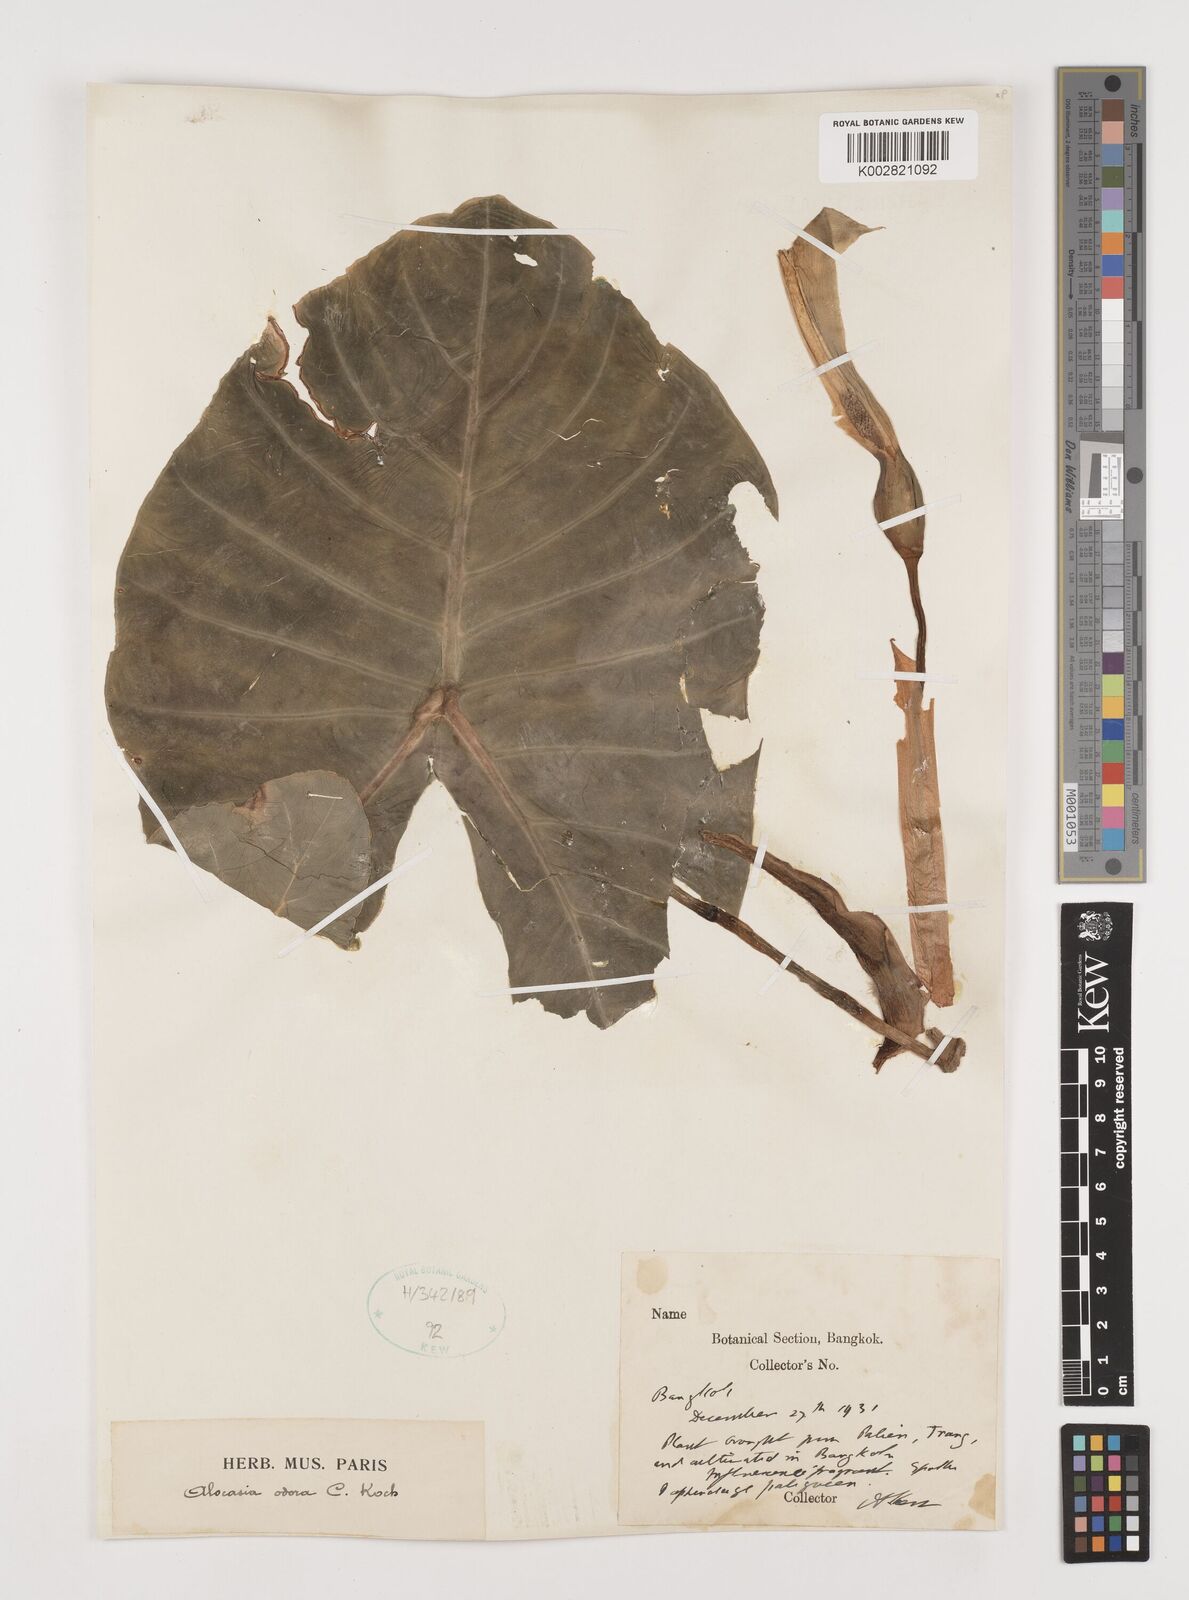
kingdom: Plantae
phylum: Tracheophyta
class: Liliopsida
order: Alismatales
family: Araceae
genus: Alocasia
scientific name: Alocasia
